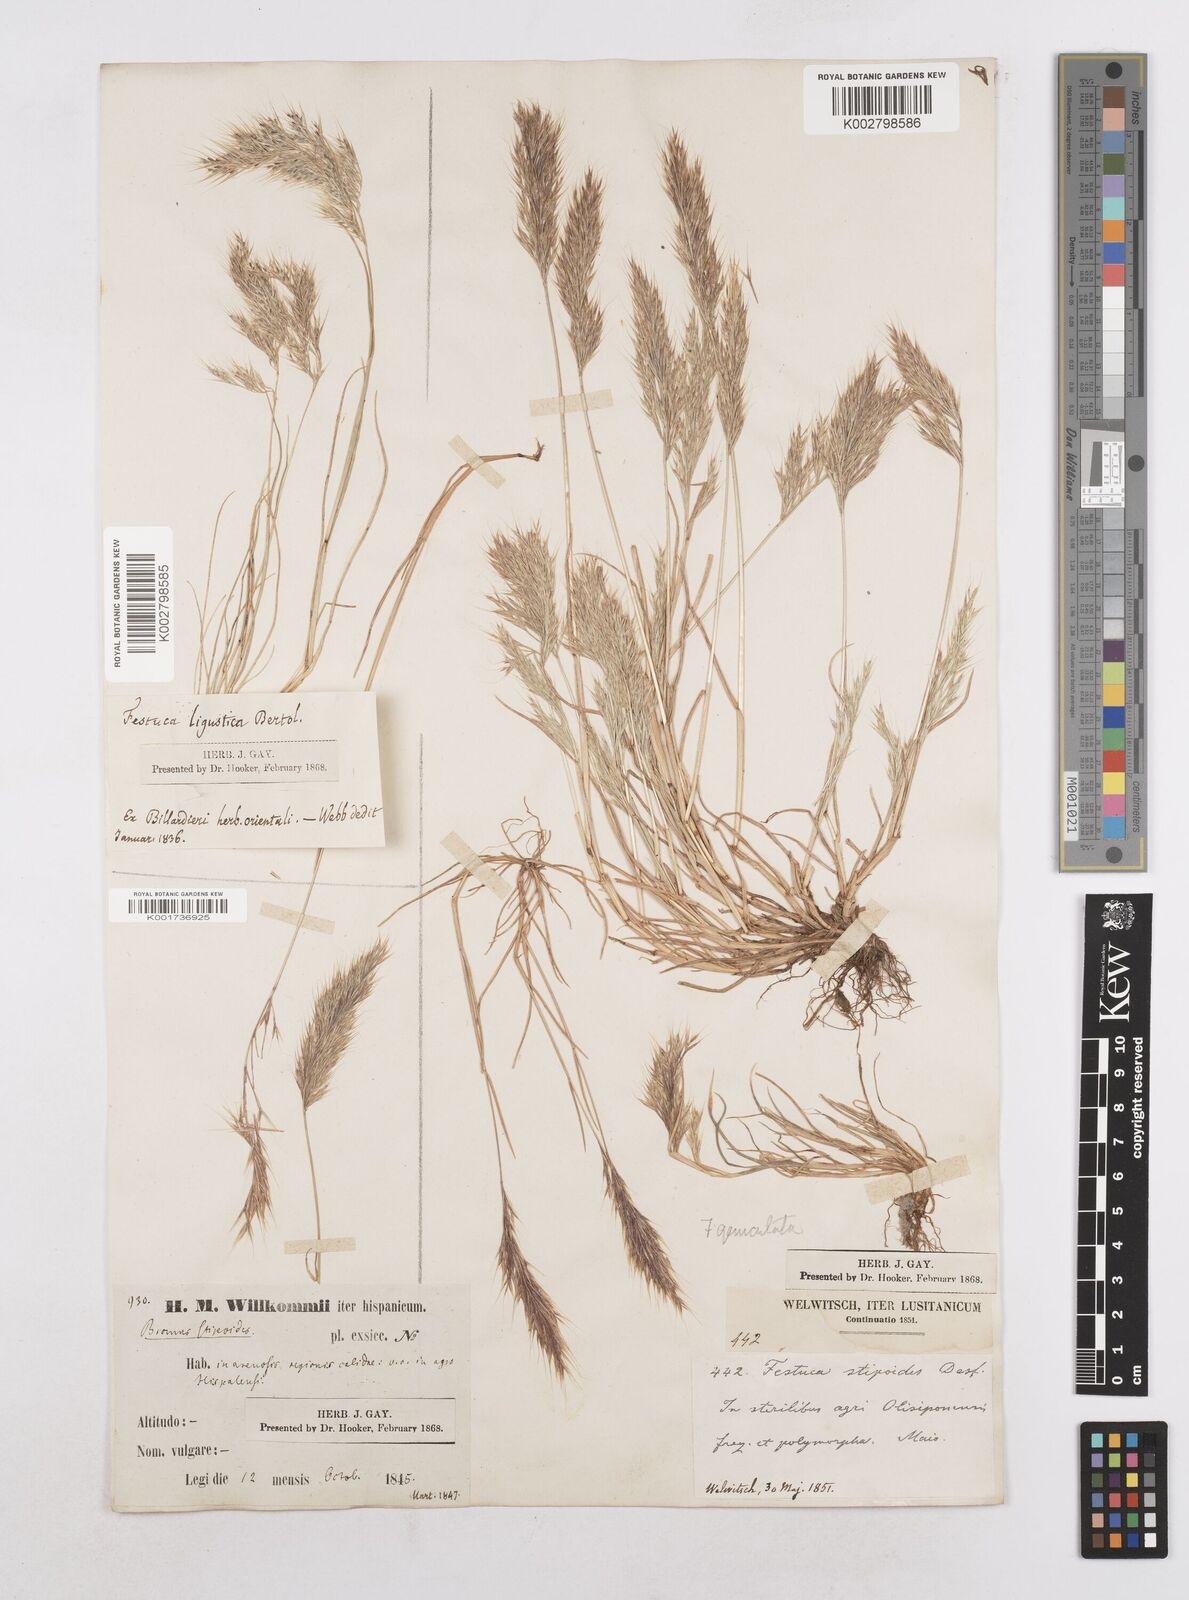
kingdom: Plantae
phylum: Tracheophyta
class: Liliopsida
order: Poales
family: Poaceae
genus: Festuca
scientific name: Festuca geniculata
